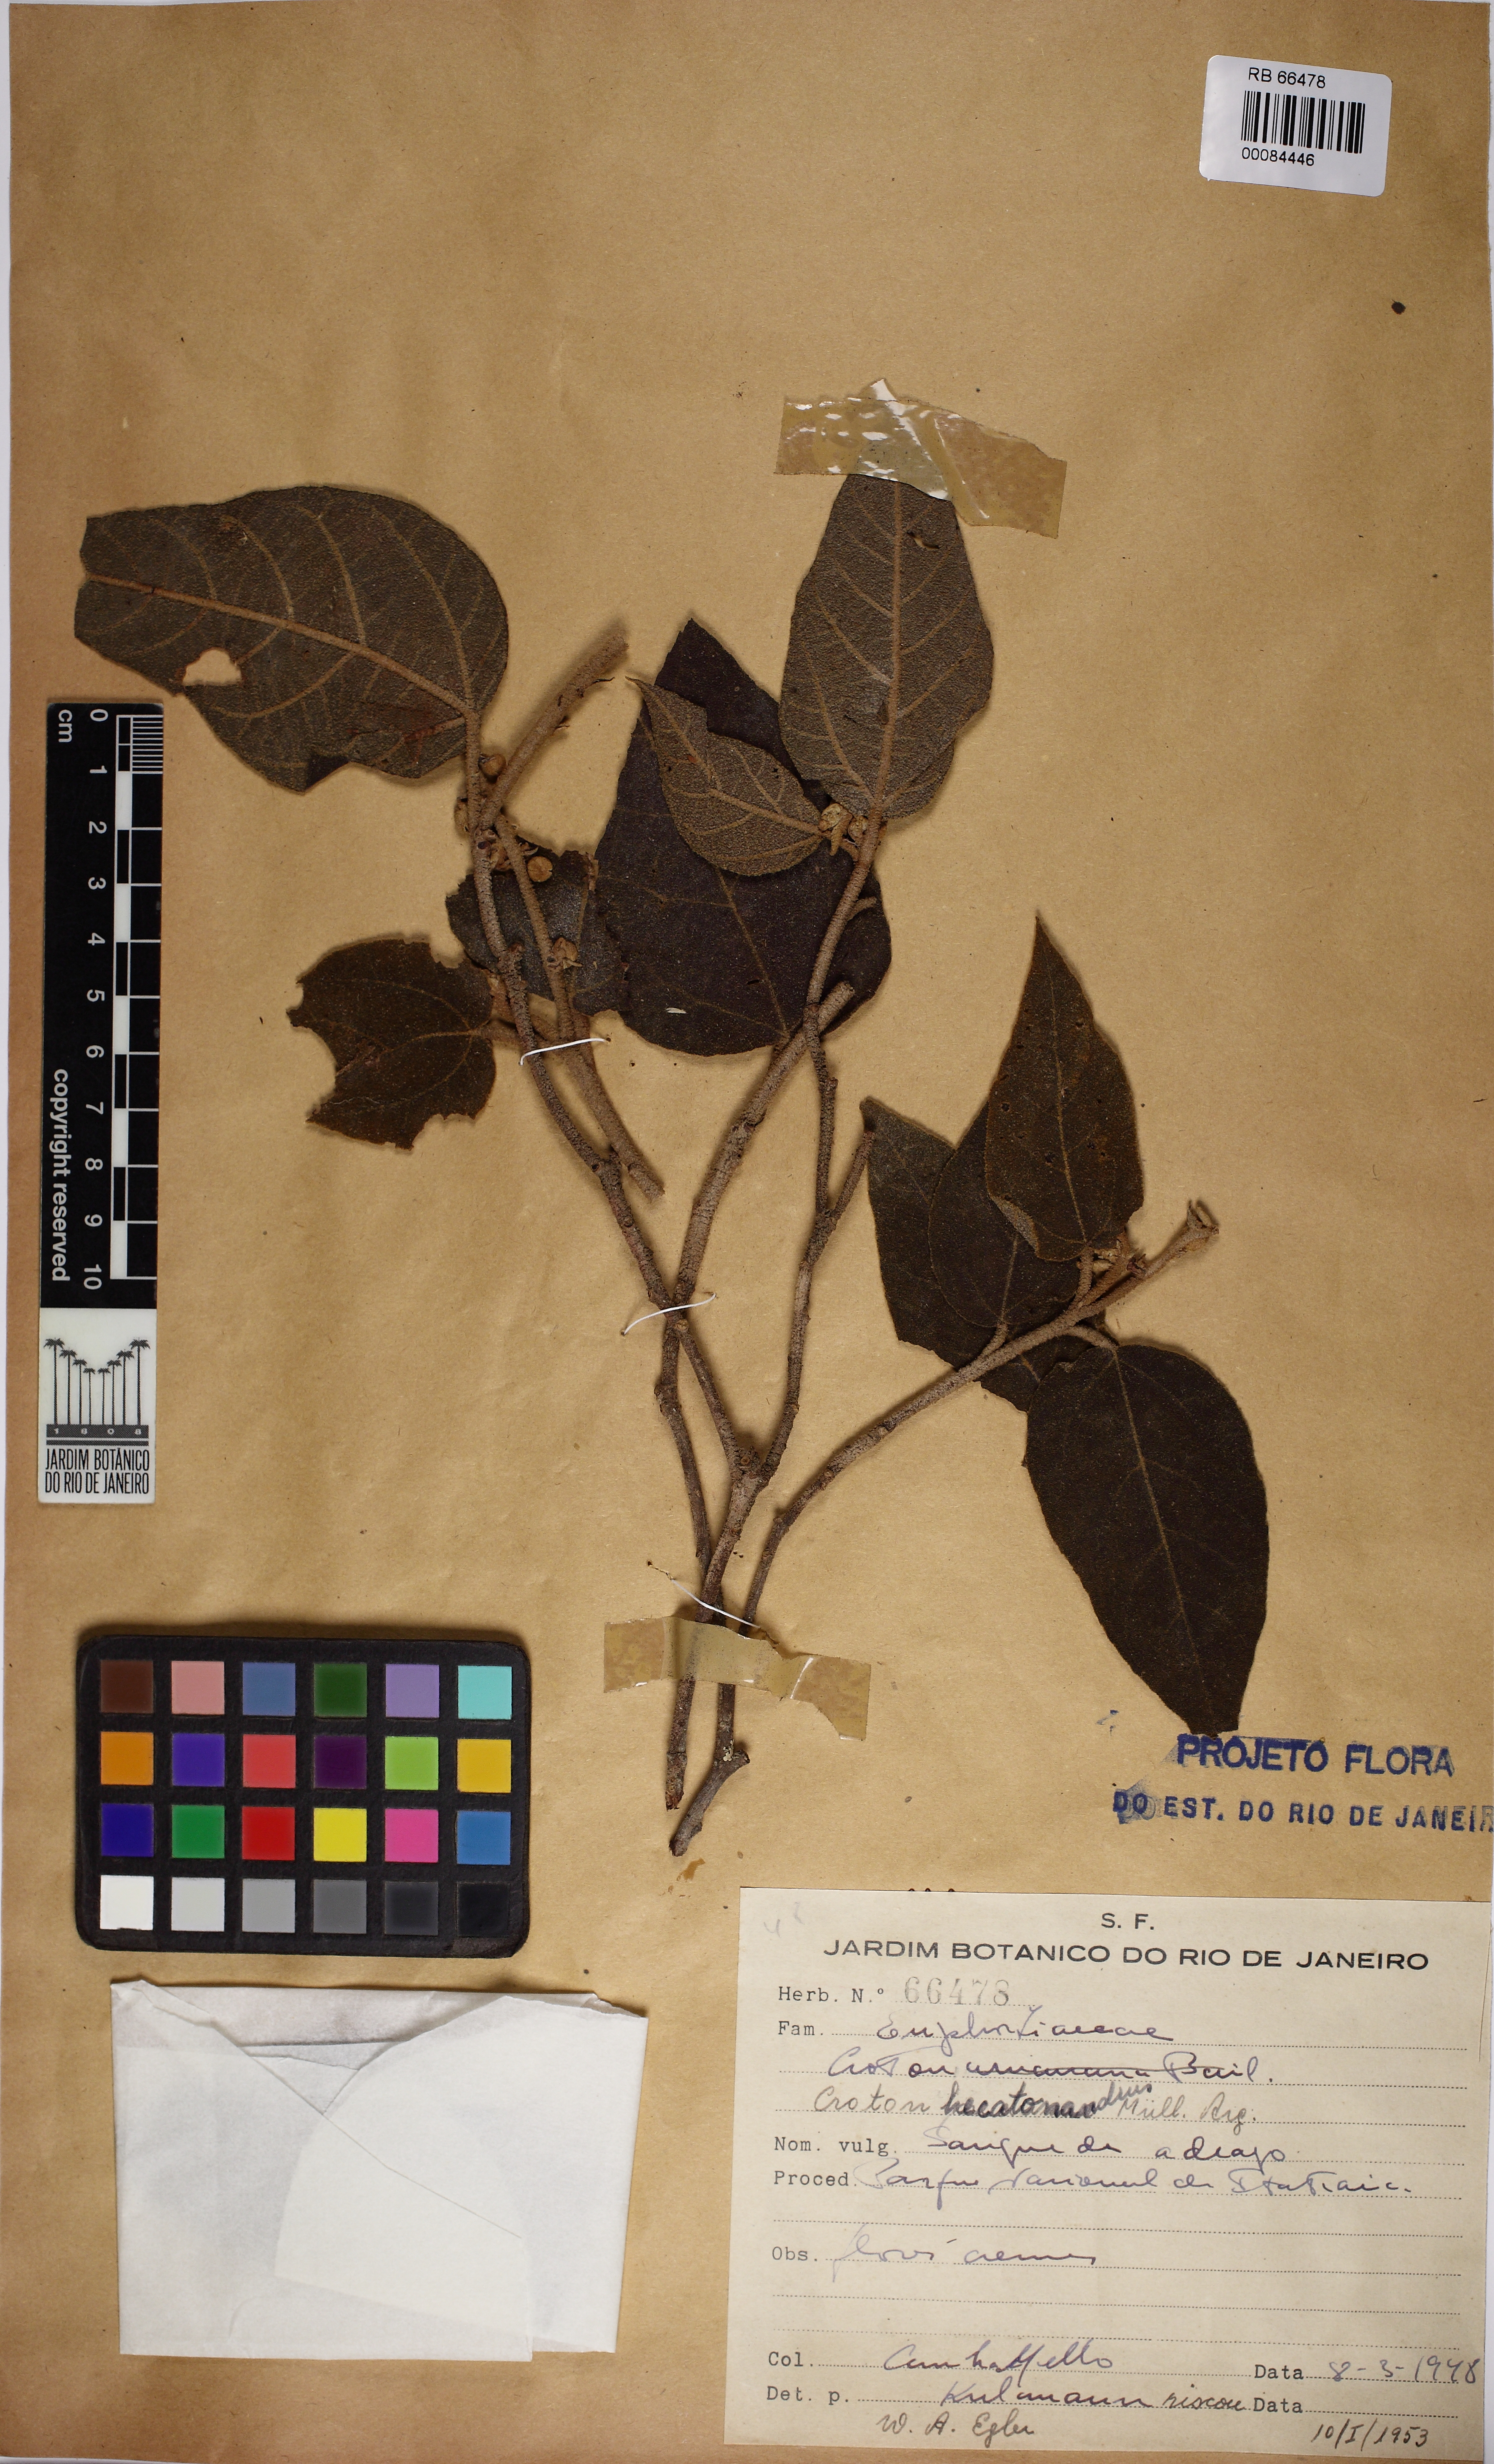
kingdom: Plantae
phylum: Tracheophyta
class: Magnoliopsida
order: Malpighiales
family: Euphorbiaceae
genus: Croton
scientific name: Croton vulnerarius
